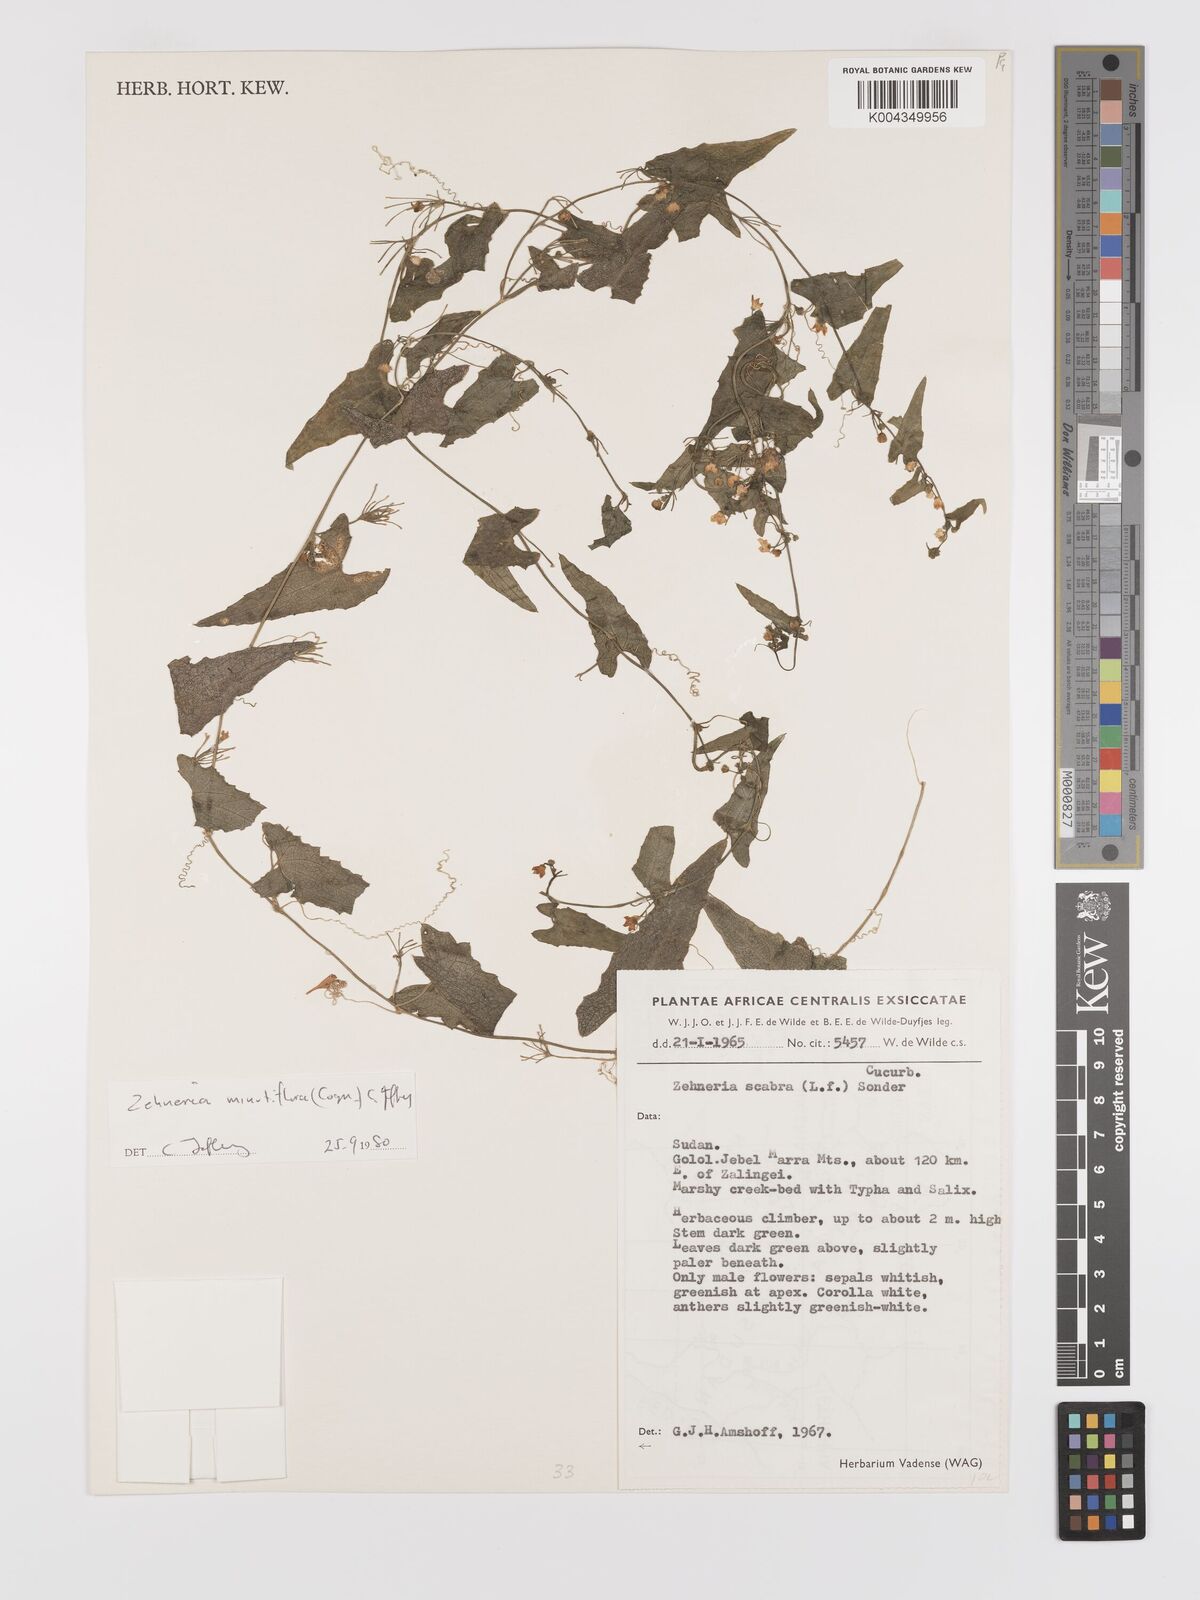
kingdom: Plantae
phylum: Tracheophyta
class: Magnoliopsida
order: Cucurbitales
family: Cucurbitaceae
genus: Zehneria
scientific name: Zehneria minutiflora
